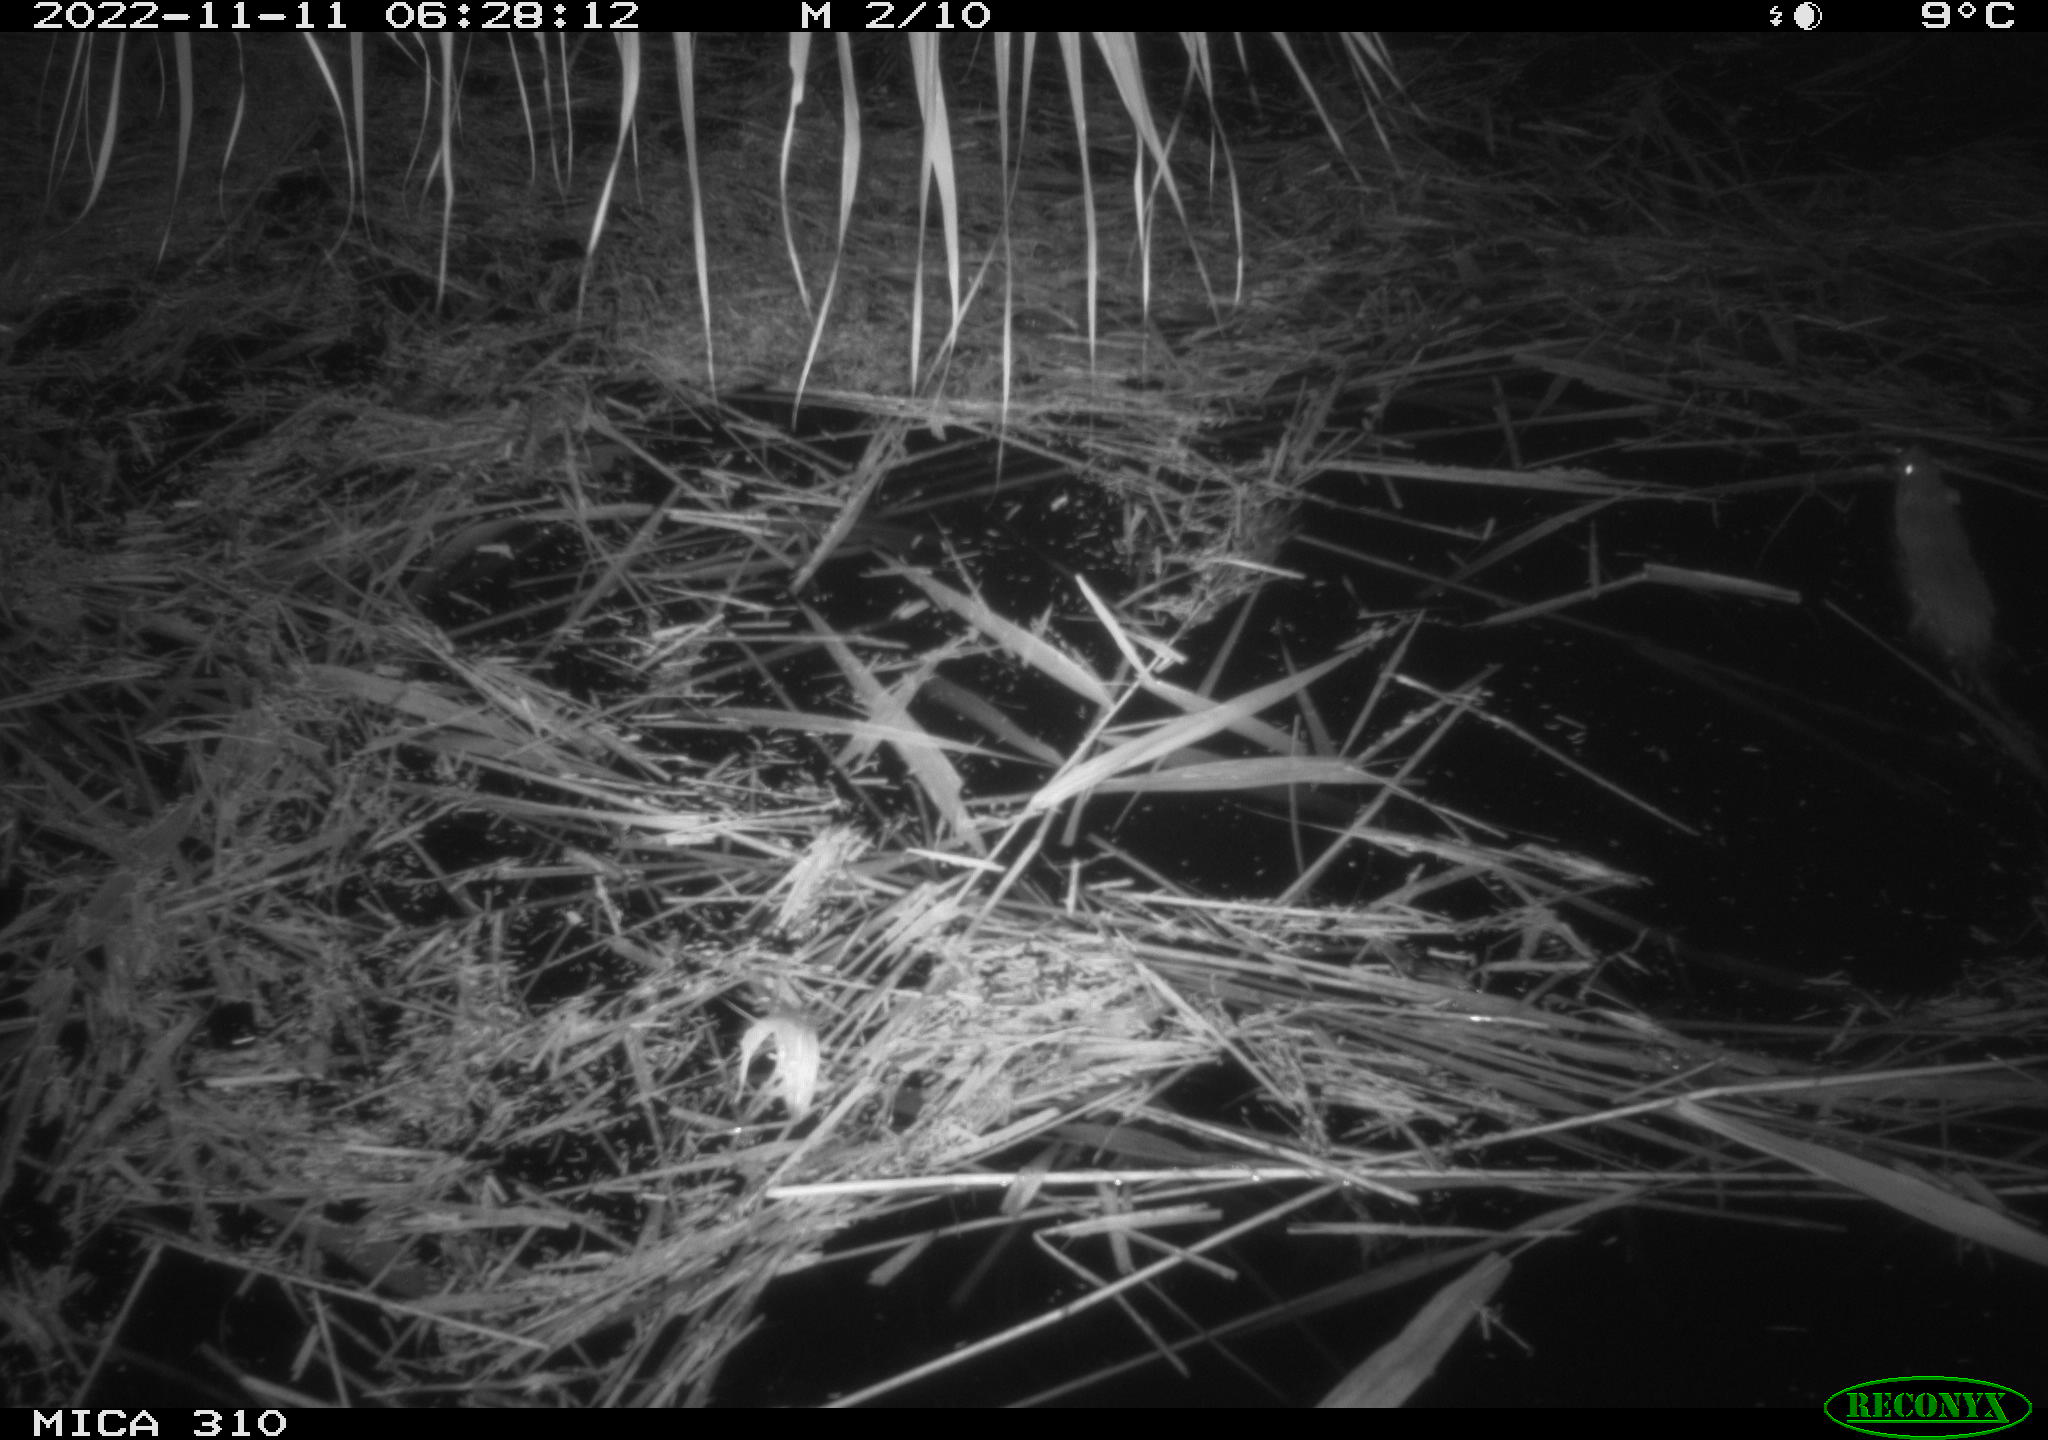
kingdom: Animalia
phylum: Chordata
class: Mammalia
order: Rodentia
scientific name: Rodentia
